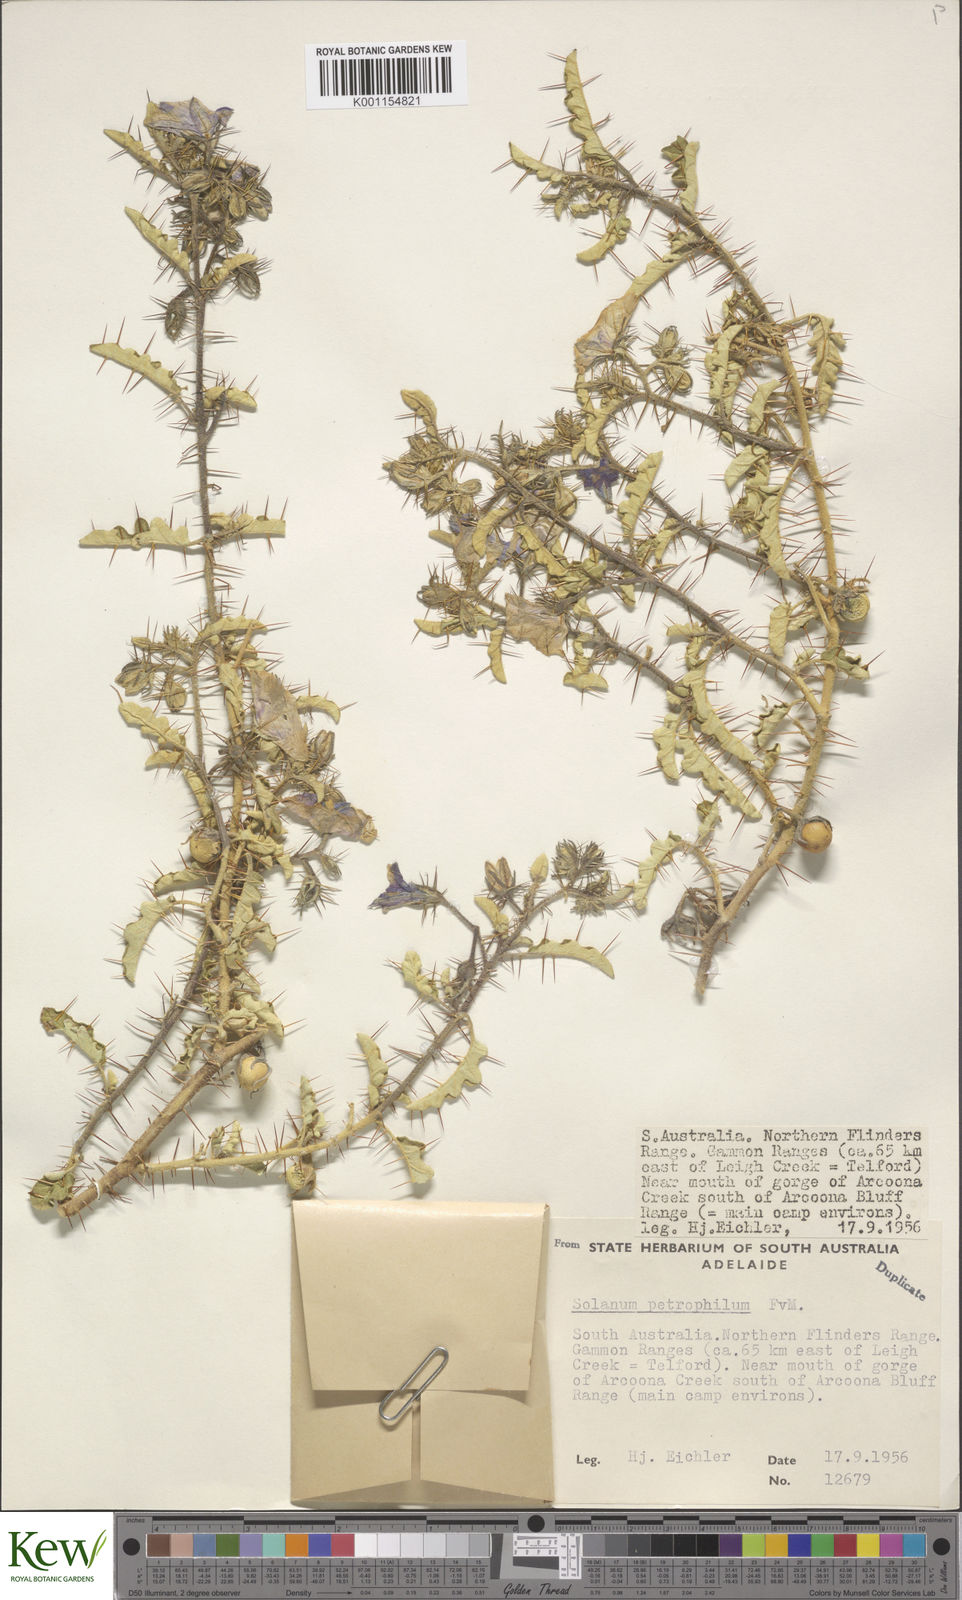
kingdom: Plantae
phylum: Tracheophyta
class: Magnoliopsida
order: Solanales
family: Solanaceae
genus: Solanum
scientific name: Solanum petrophilum
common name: Rock nightshade
